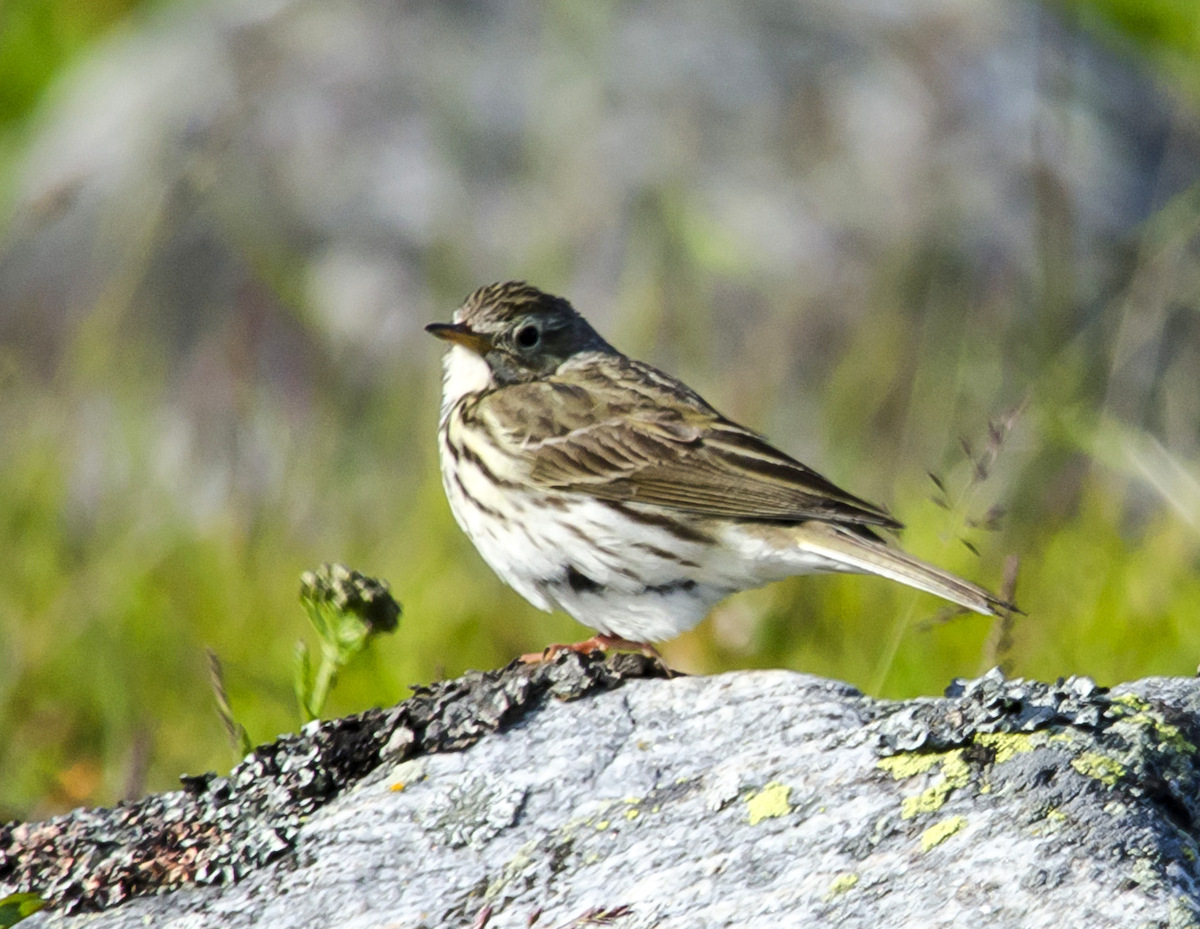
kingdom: Animalia
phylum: Chordata
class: Aves
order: Passeriformes
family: Motacillidae
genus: Anthus
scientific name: Anthus trivialis
